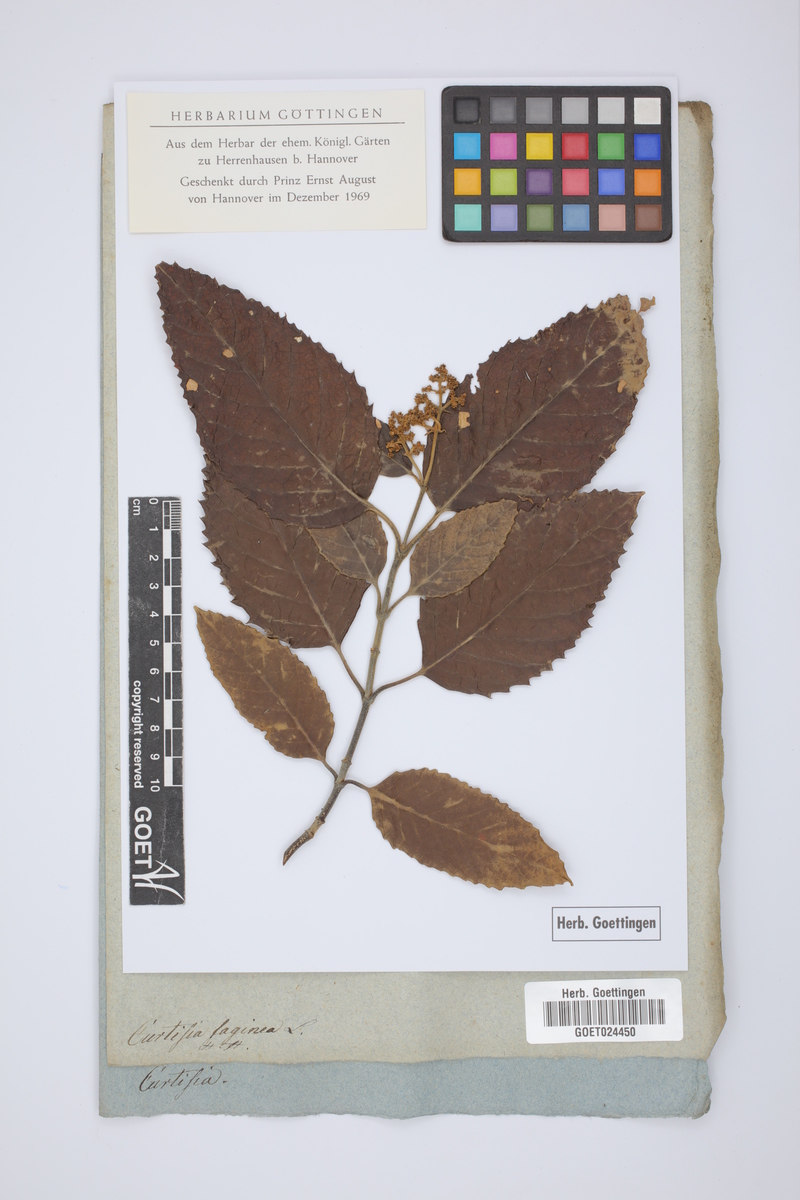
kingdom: Plantae
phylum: Tracheophyta
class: Magnoliopsida
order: Cornales
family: Curtisiaceae
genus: Curtisia
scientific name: Curtisia dentata
